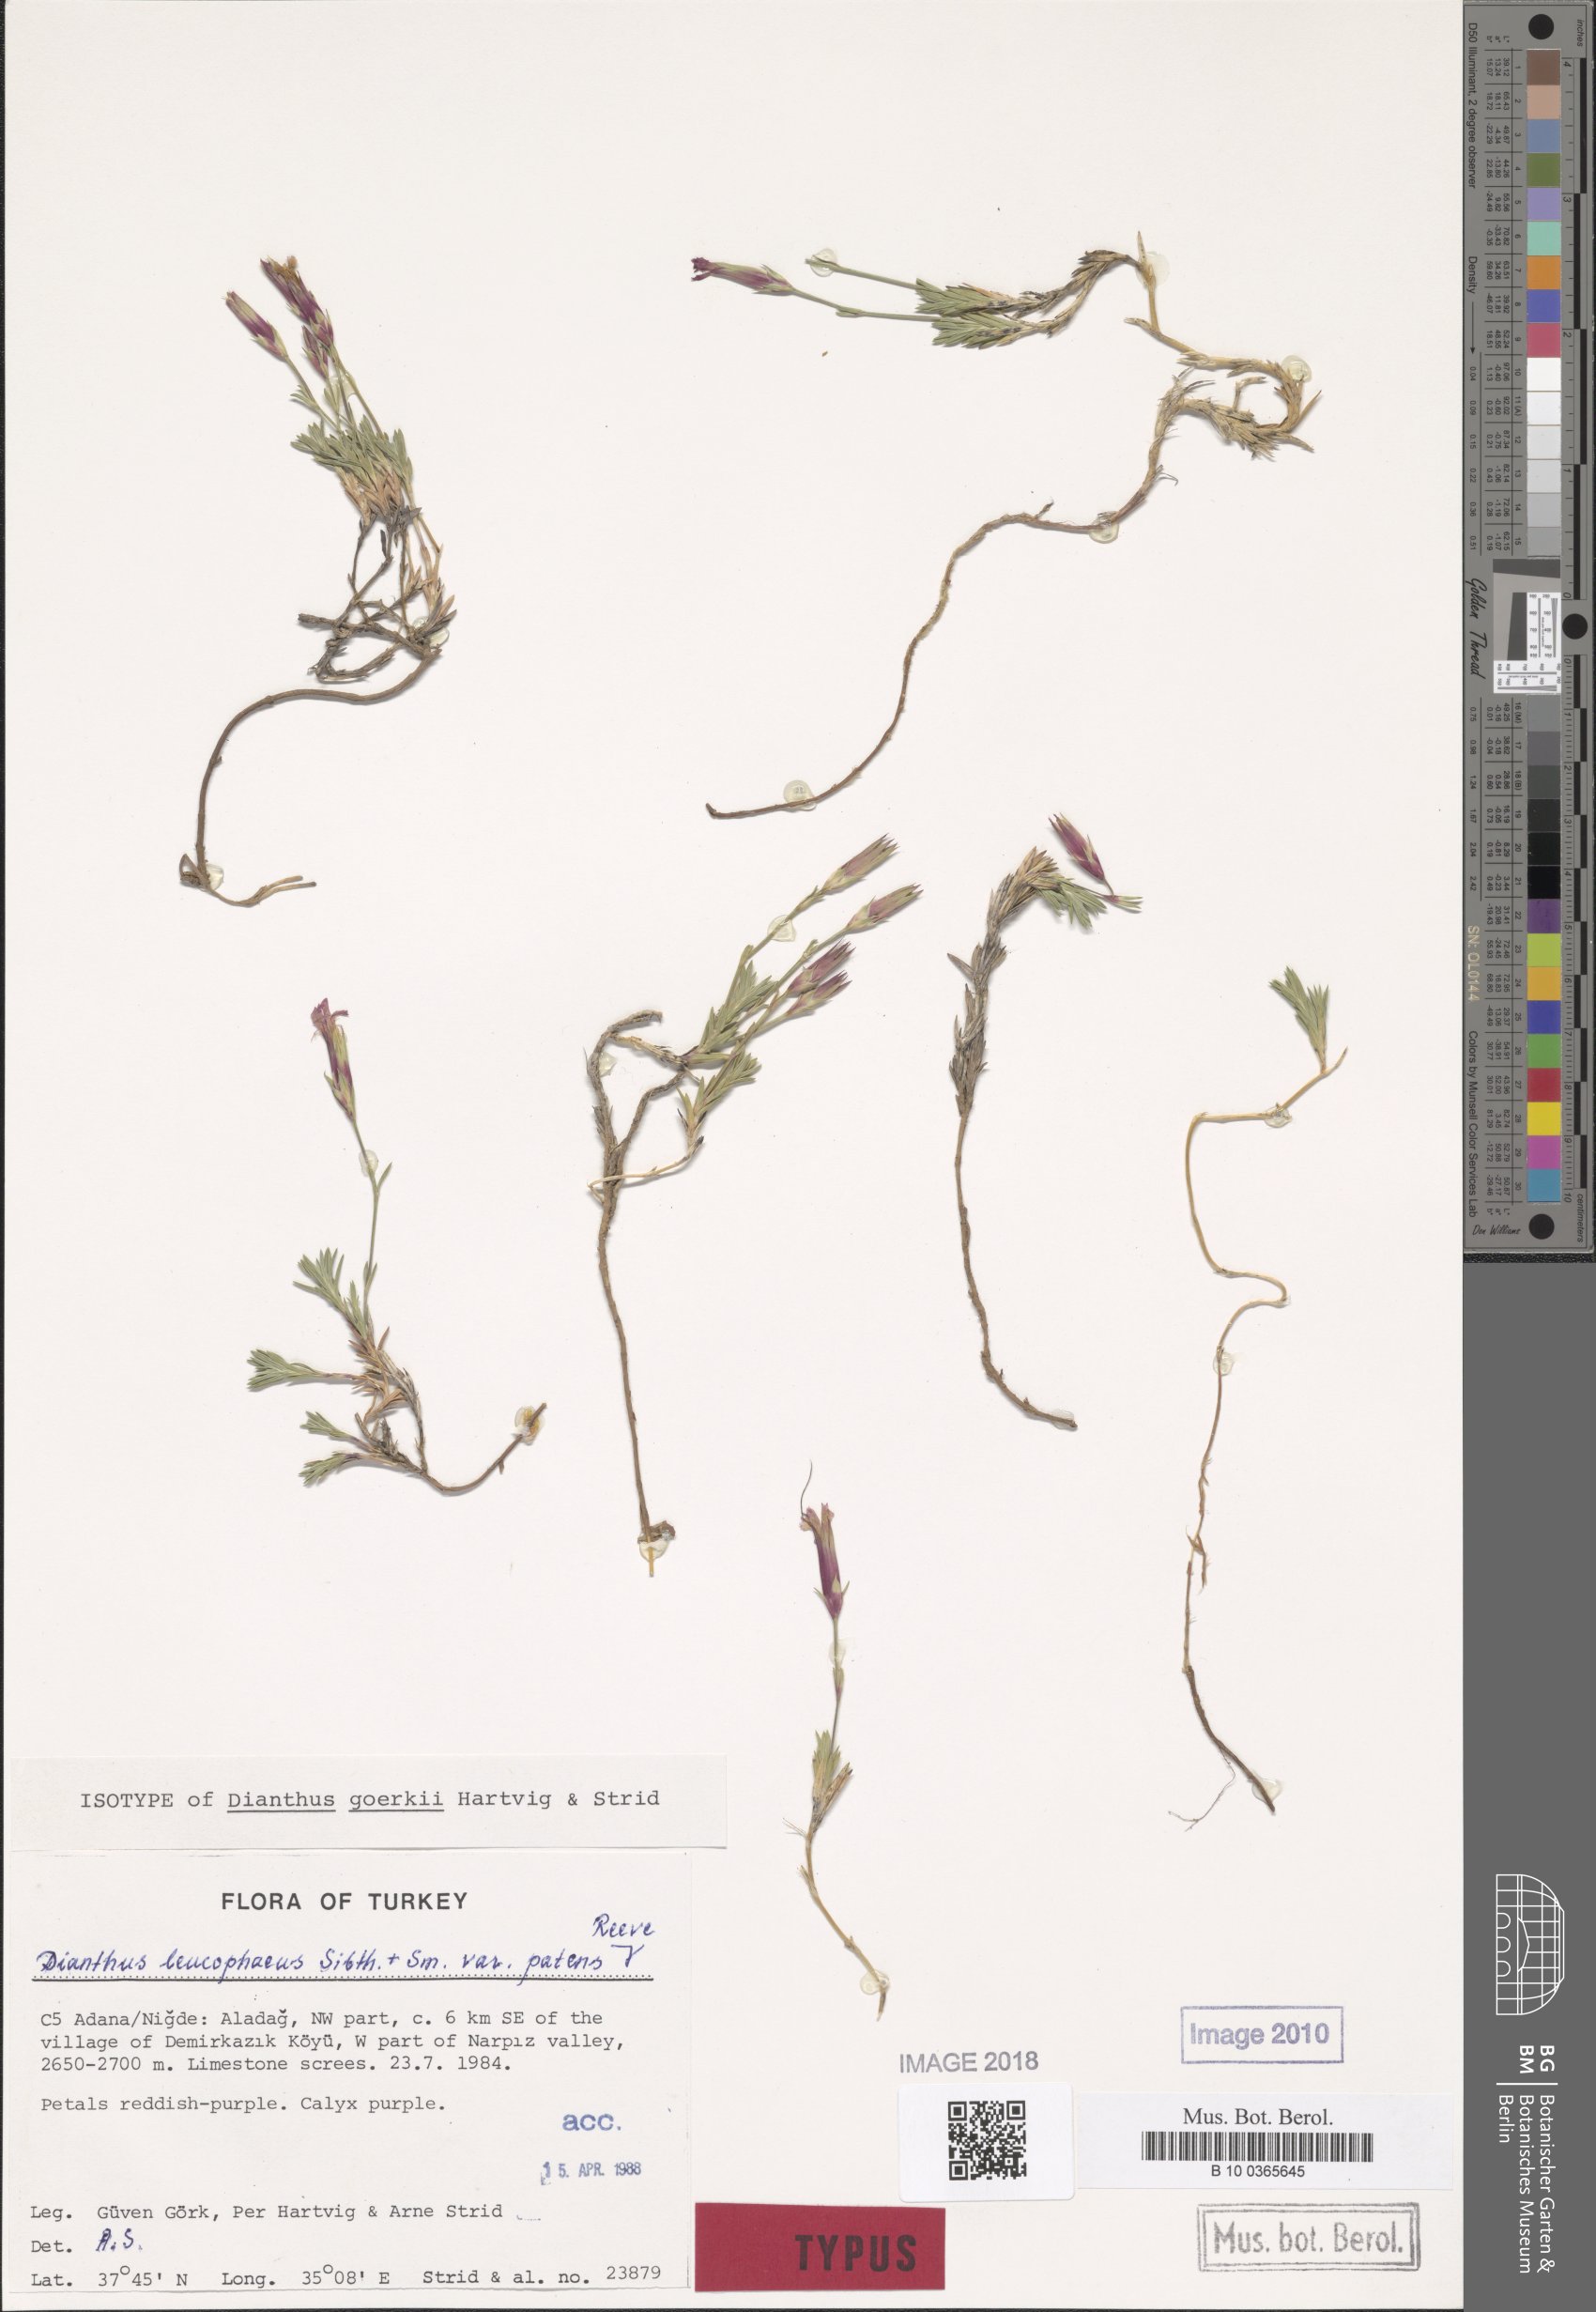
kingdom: Plantae
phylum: Tracheophyta
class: Magnoliopsida
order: Caryophyllales
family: Caryophyllaceae
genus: Dianthus
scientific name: Dianthus goerkii
